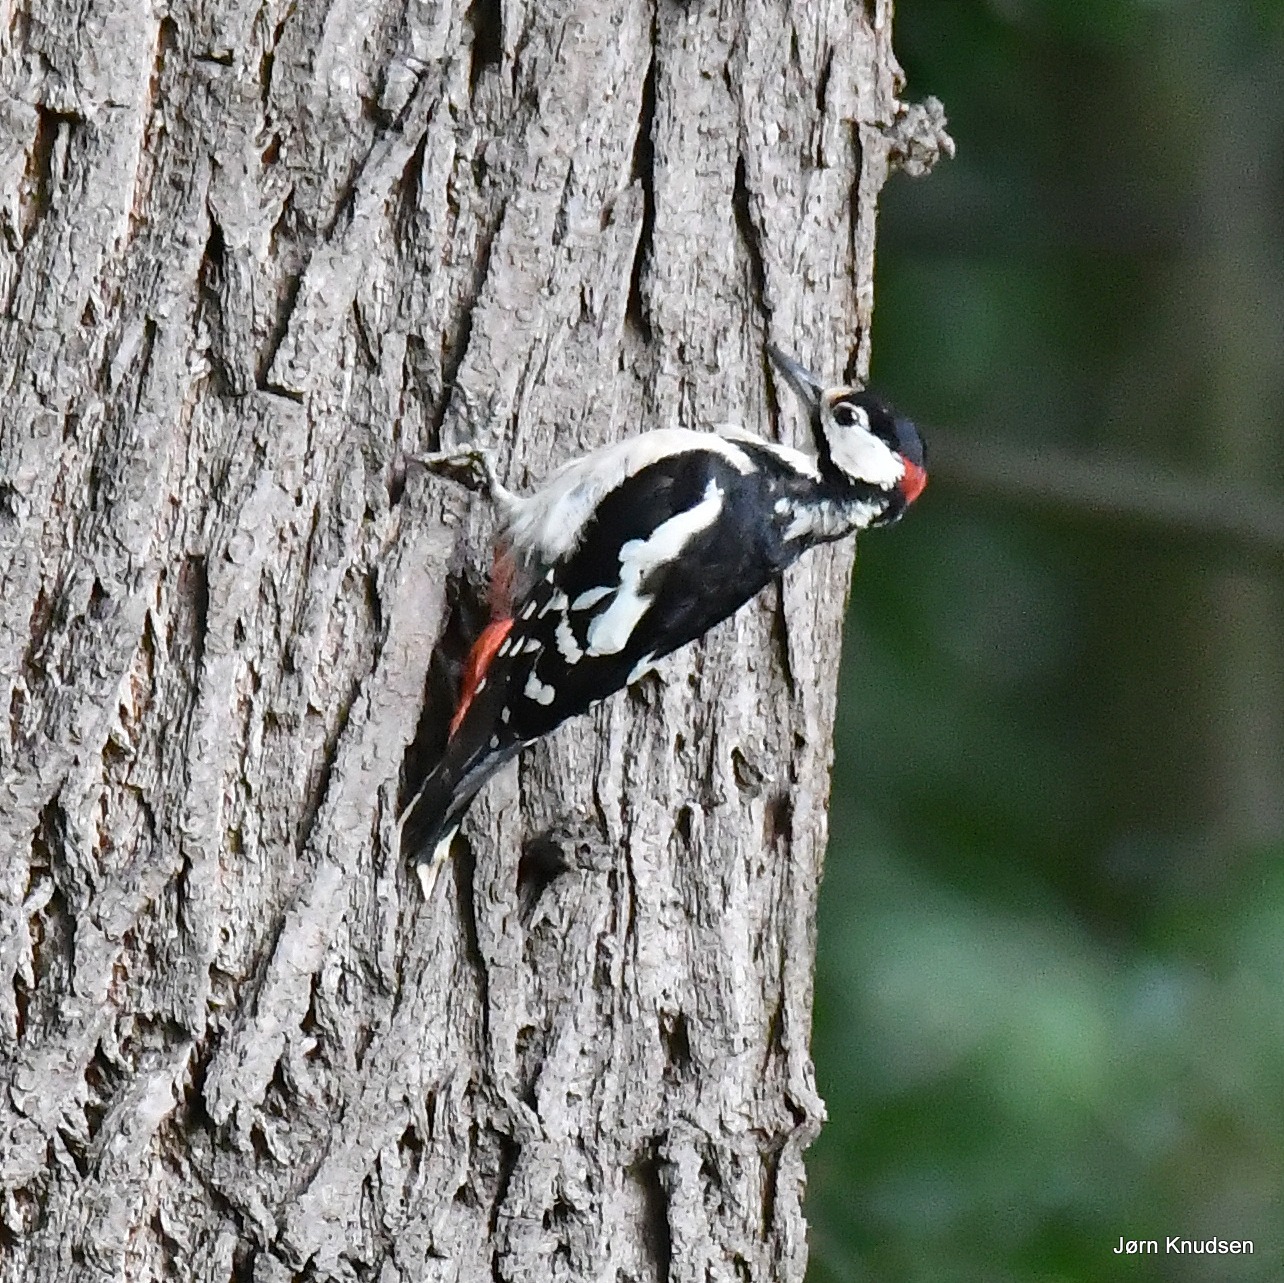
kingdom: Animalia
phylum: Chordata
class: Aves
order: Piciformes
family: Picidae
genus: Dendrocopos
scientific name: Dendrocopos major
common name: Stor flagspætte
